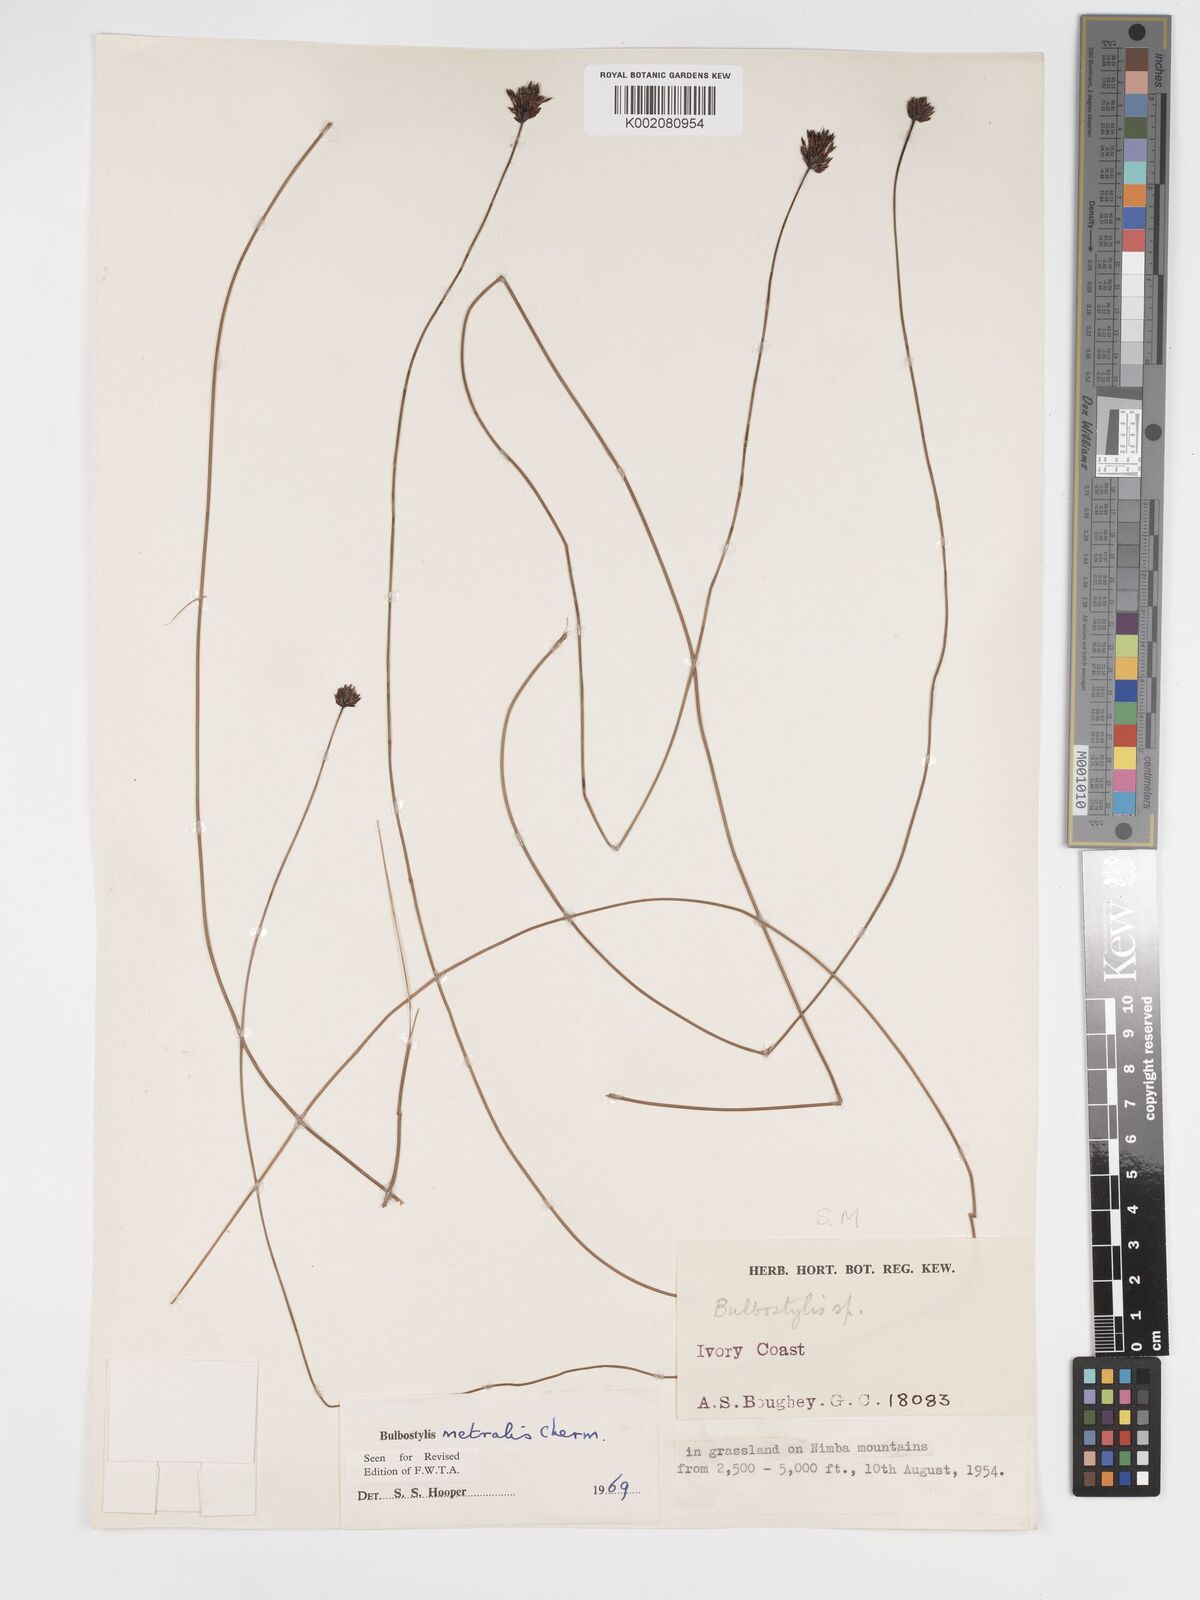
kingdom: Plantae
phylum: Tracheophyta
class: Liliopsida
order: Poales
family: Cyperaceae
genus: Bulbostylis
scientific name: Bulbostylis filamentosa
